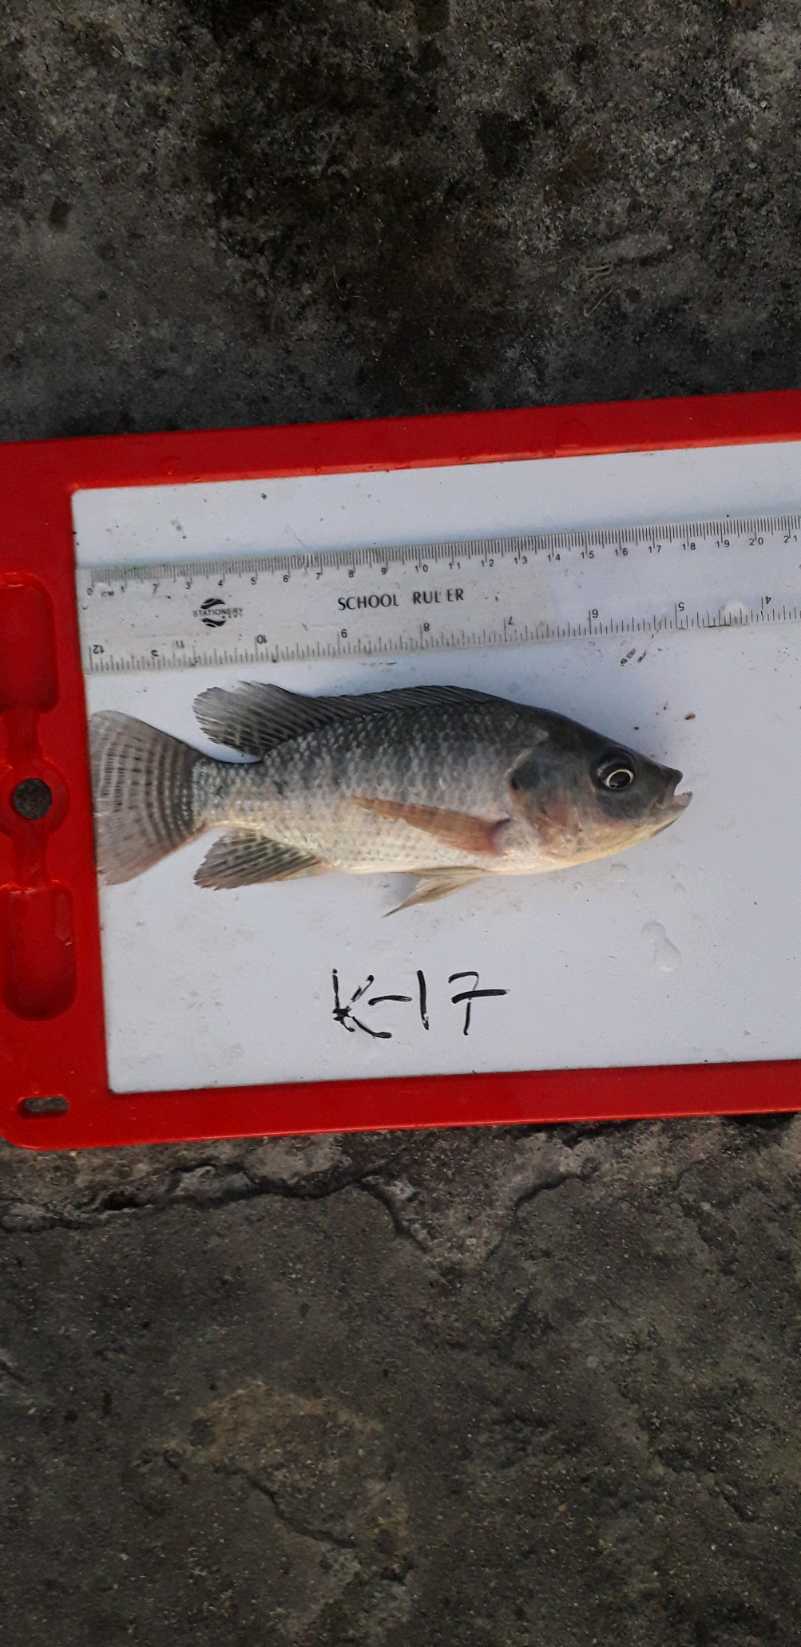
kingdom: Animalia
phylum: Chordata
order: Perciformes
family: Cichlidae
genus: Oreochromis
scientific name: Oreochromis niloticus
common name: Nile tilapia
